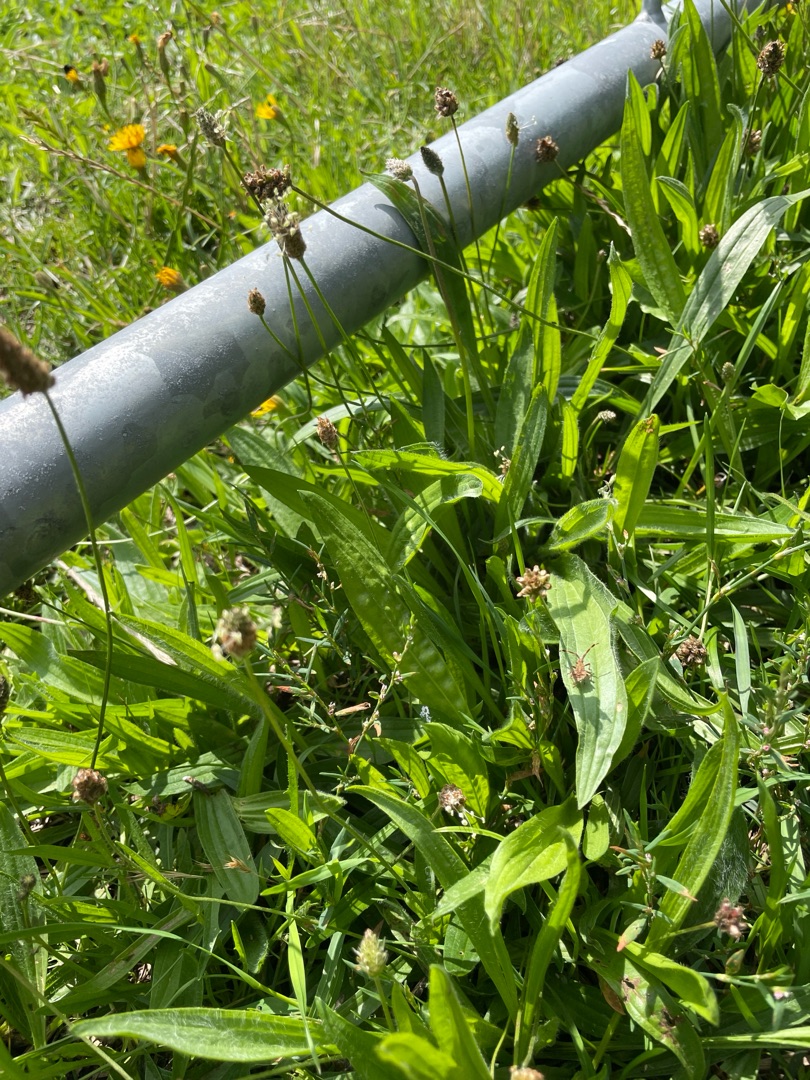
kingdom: Plantae
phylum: Tracheophyta
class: Magnoliopsida
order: Lamiales
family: Plantaginaceae
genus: Plantago
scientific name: Plantago lanceolata
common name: Lancet-vejbred
